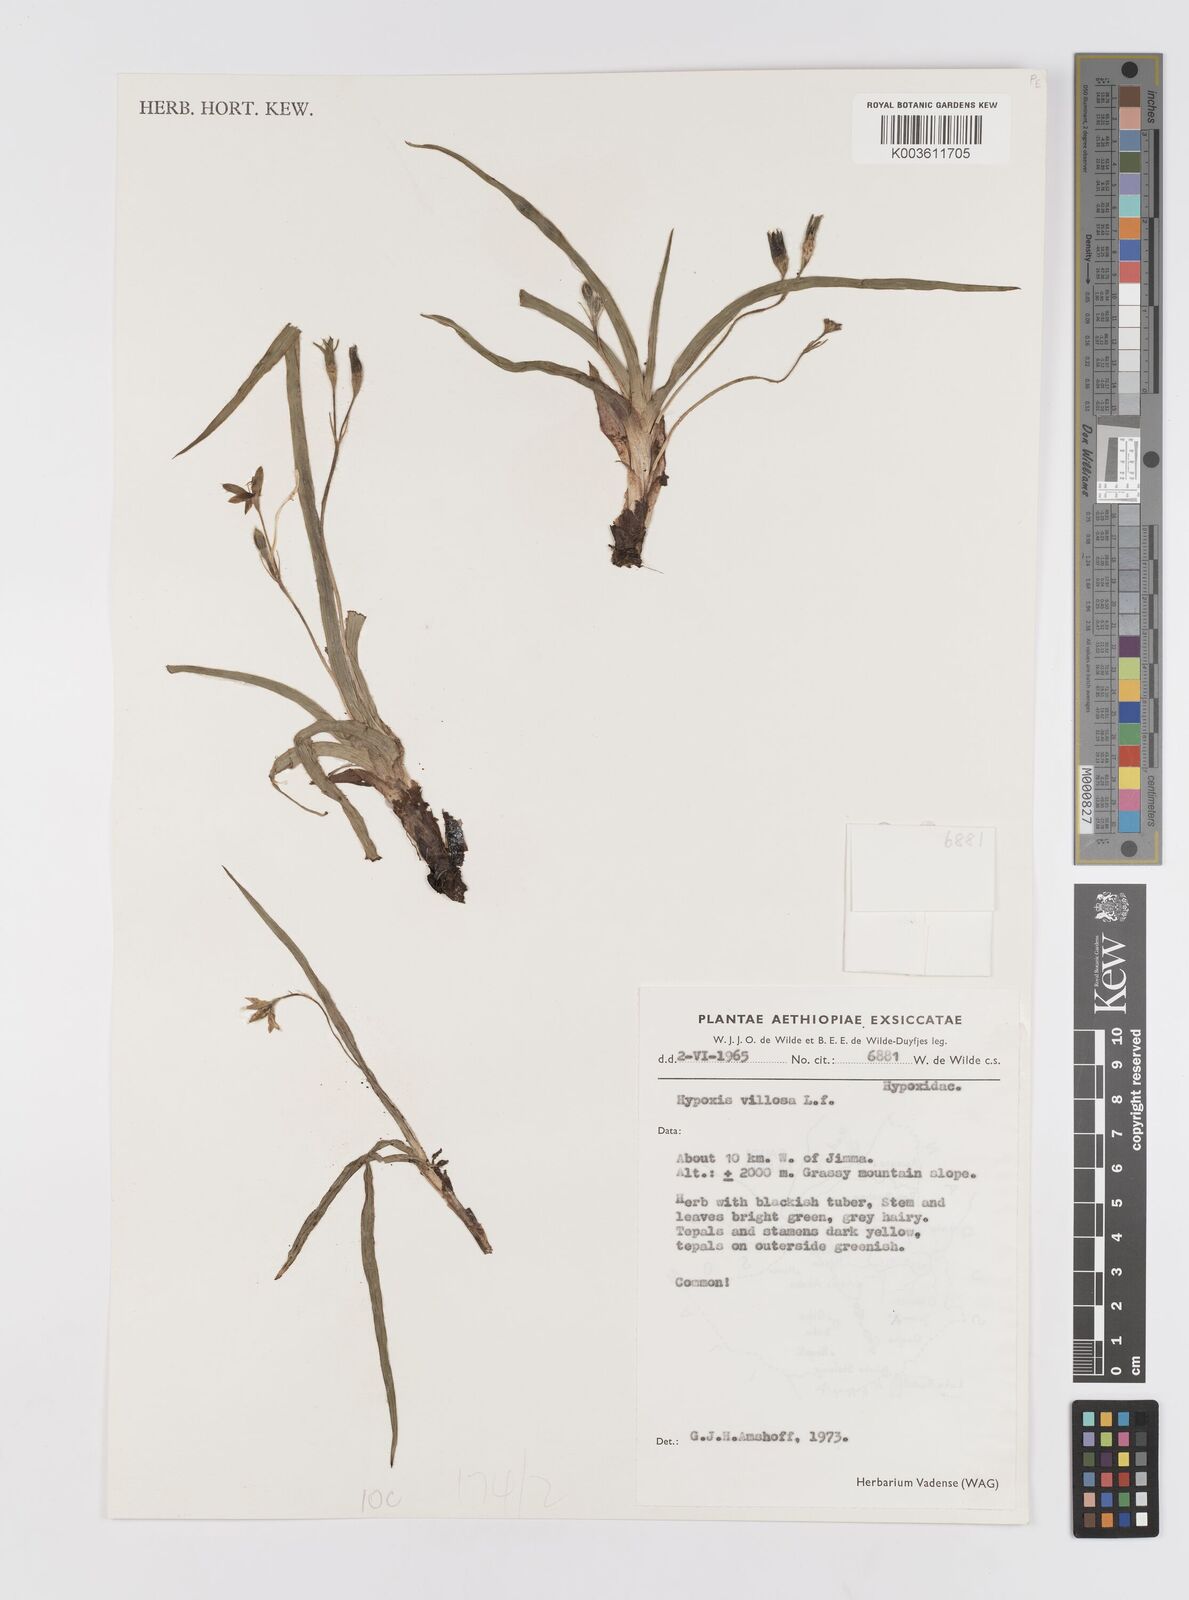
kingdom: Plantae
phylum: Tracheophyta
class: Liliopsida
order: Asparagales
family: Hypoxidaceae
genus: Hypoxis
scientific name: Hypoxis villosa
